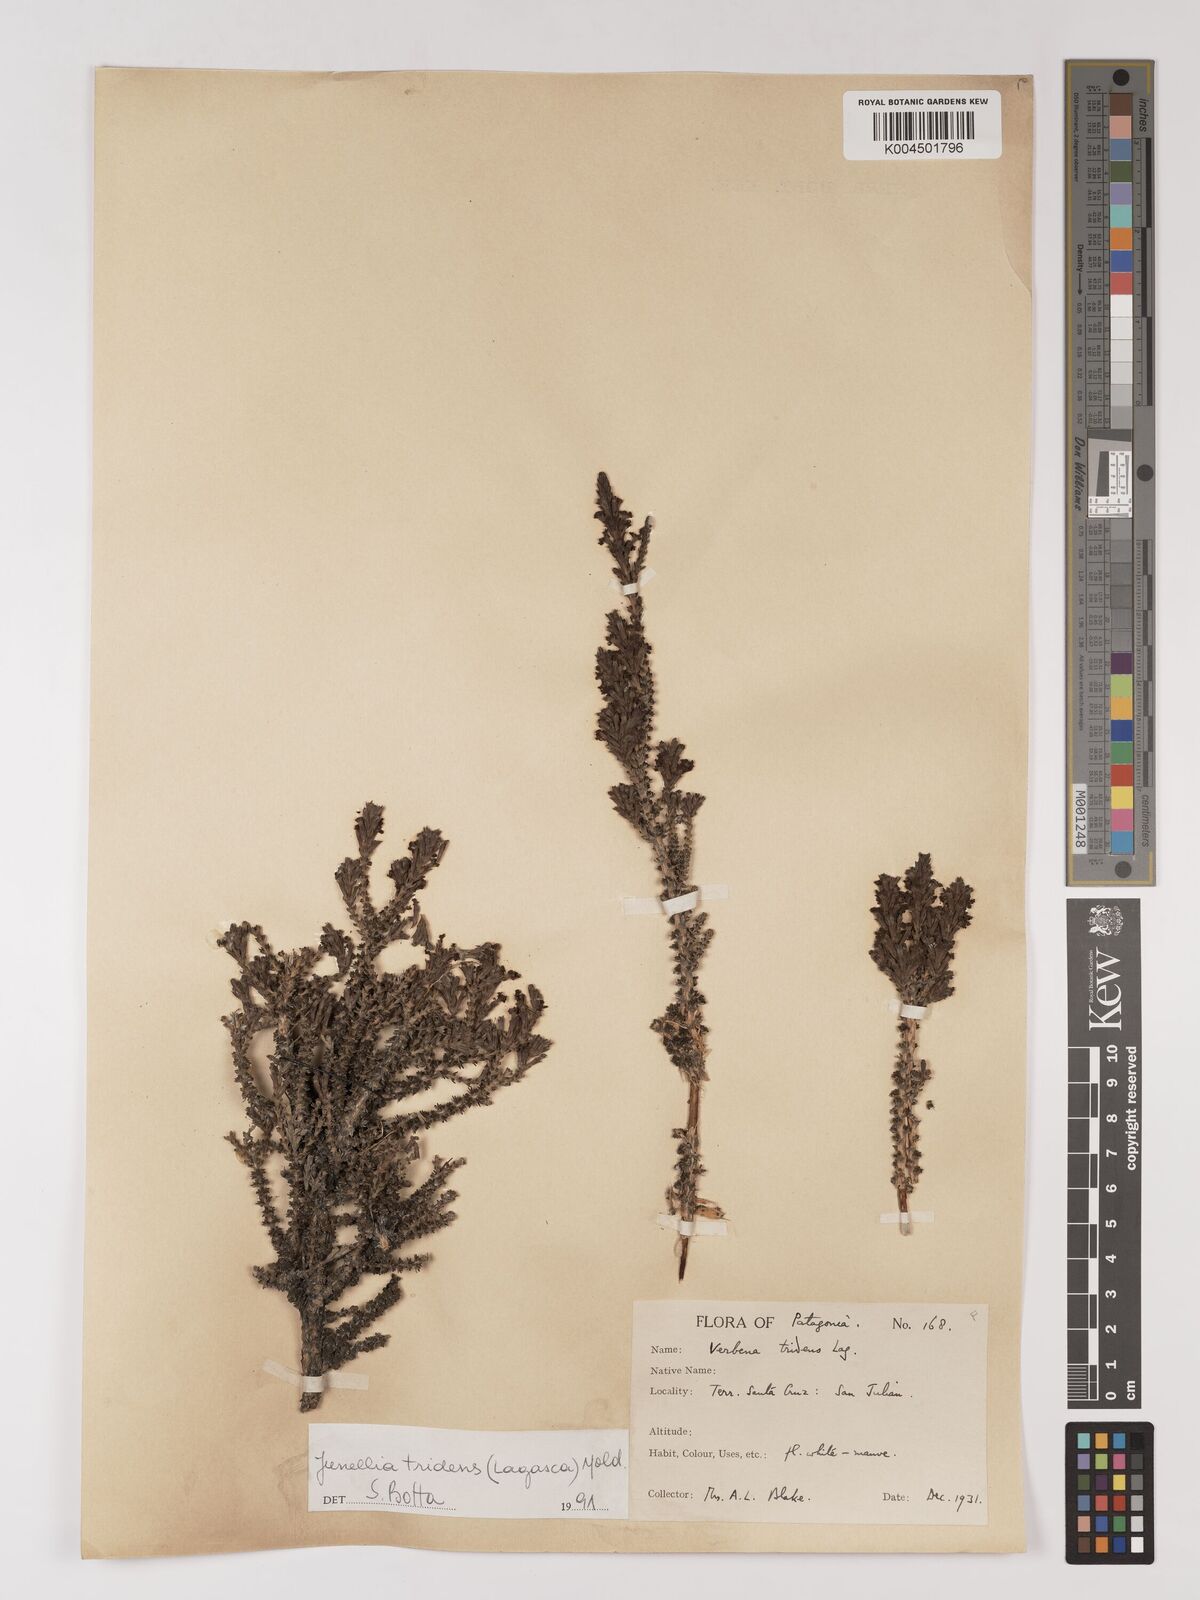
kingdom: Plantae
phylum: Tracheophyta
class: Magnoliopsida
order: Lamiales
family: Verbenaceae
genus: Mulguraea
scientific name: Mulguraea tridens
